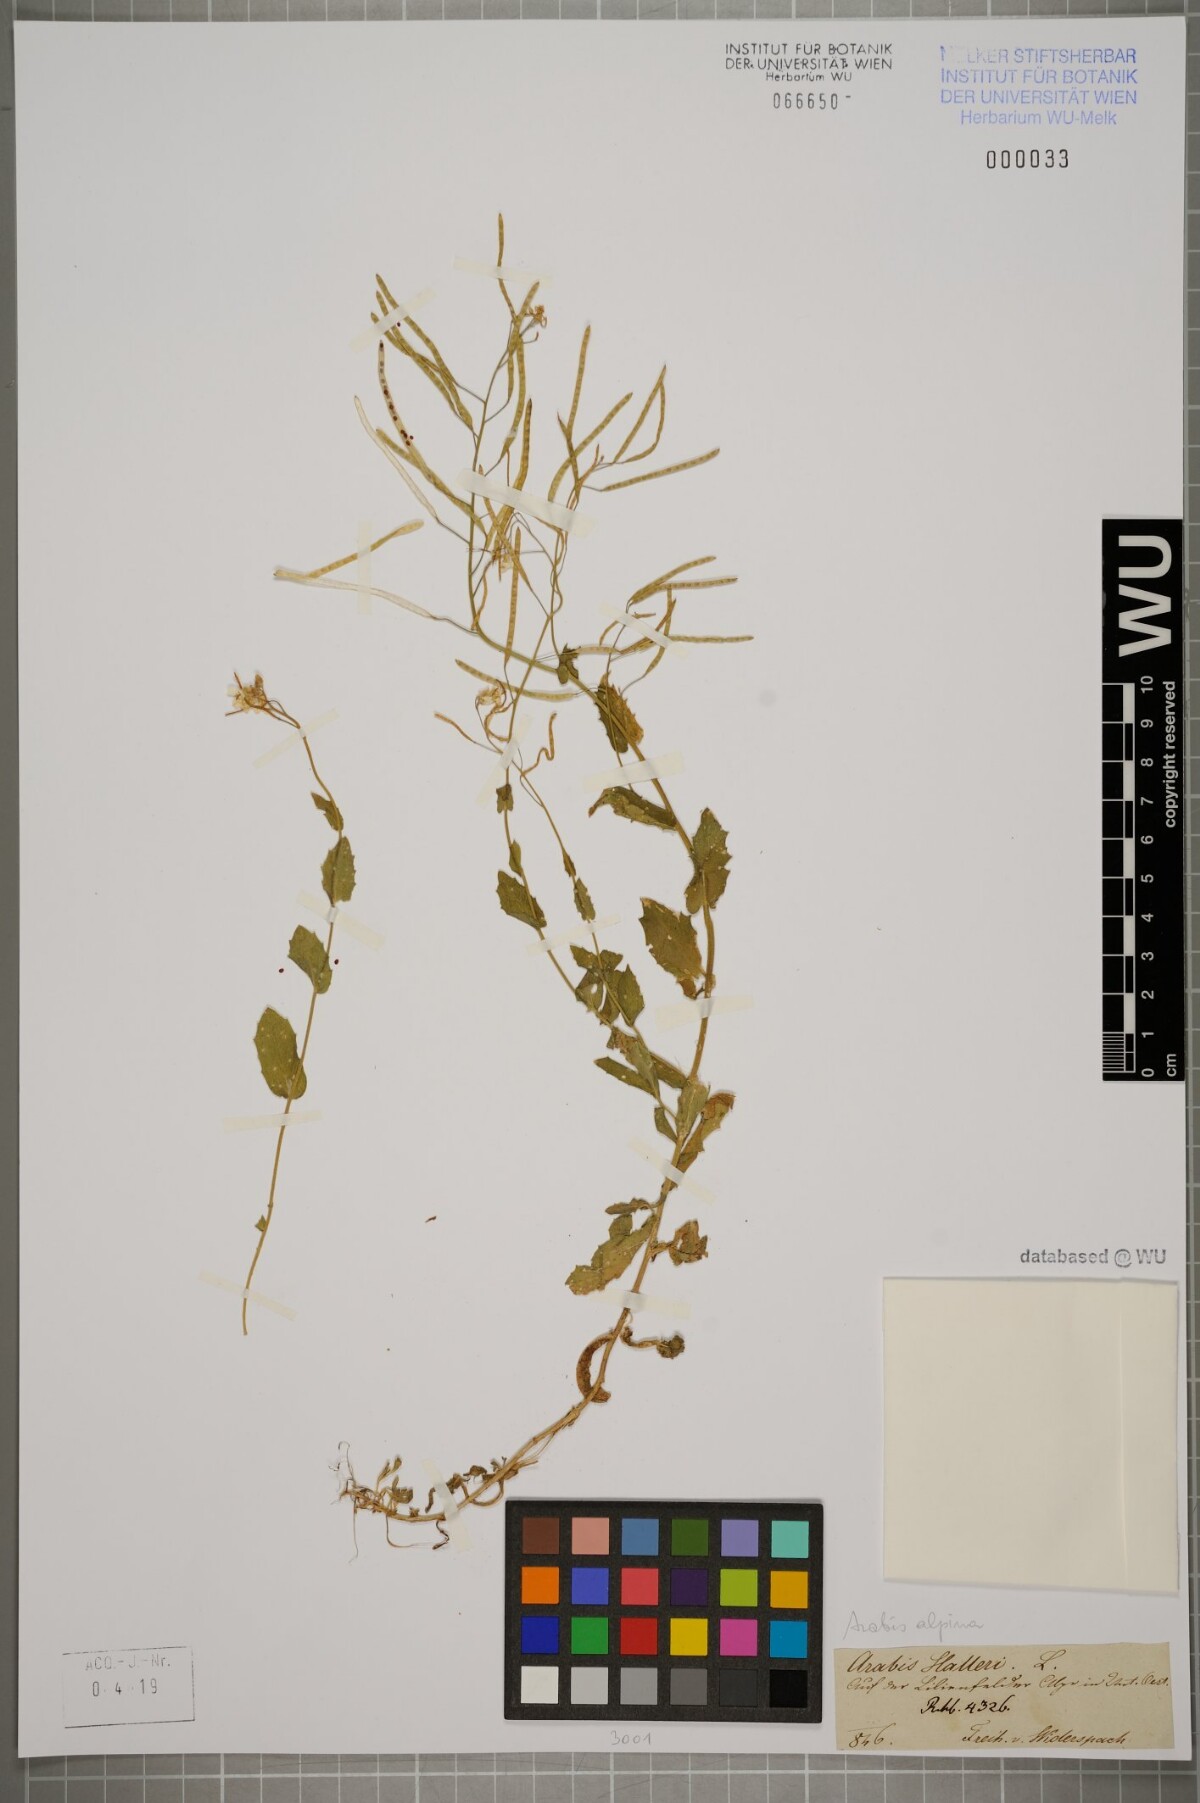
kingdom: Plantae
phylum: Tracheophyta
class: Magnoliopsida
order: Brassicales
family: Brassicaceae
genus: Arabis
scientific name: Arabis alpina
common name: Alpine rock-cress
